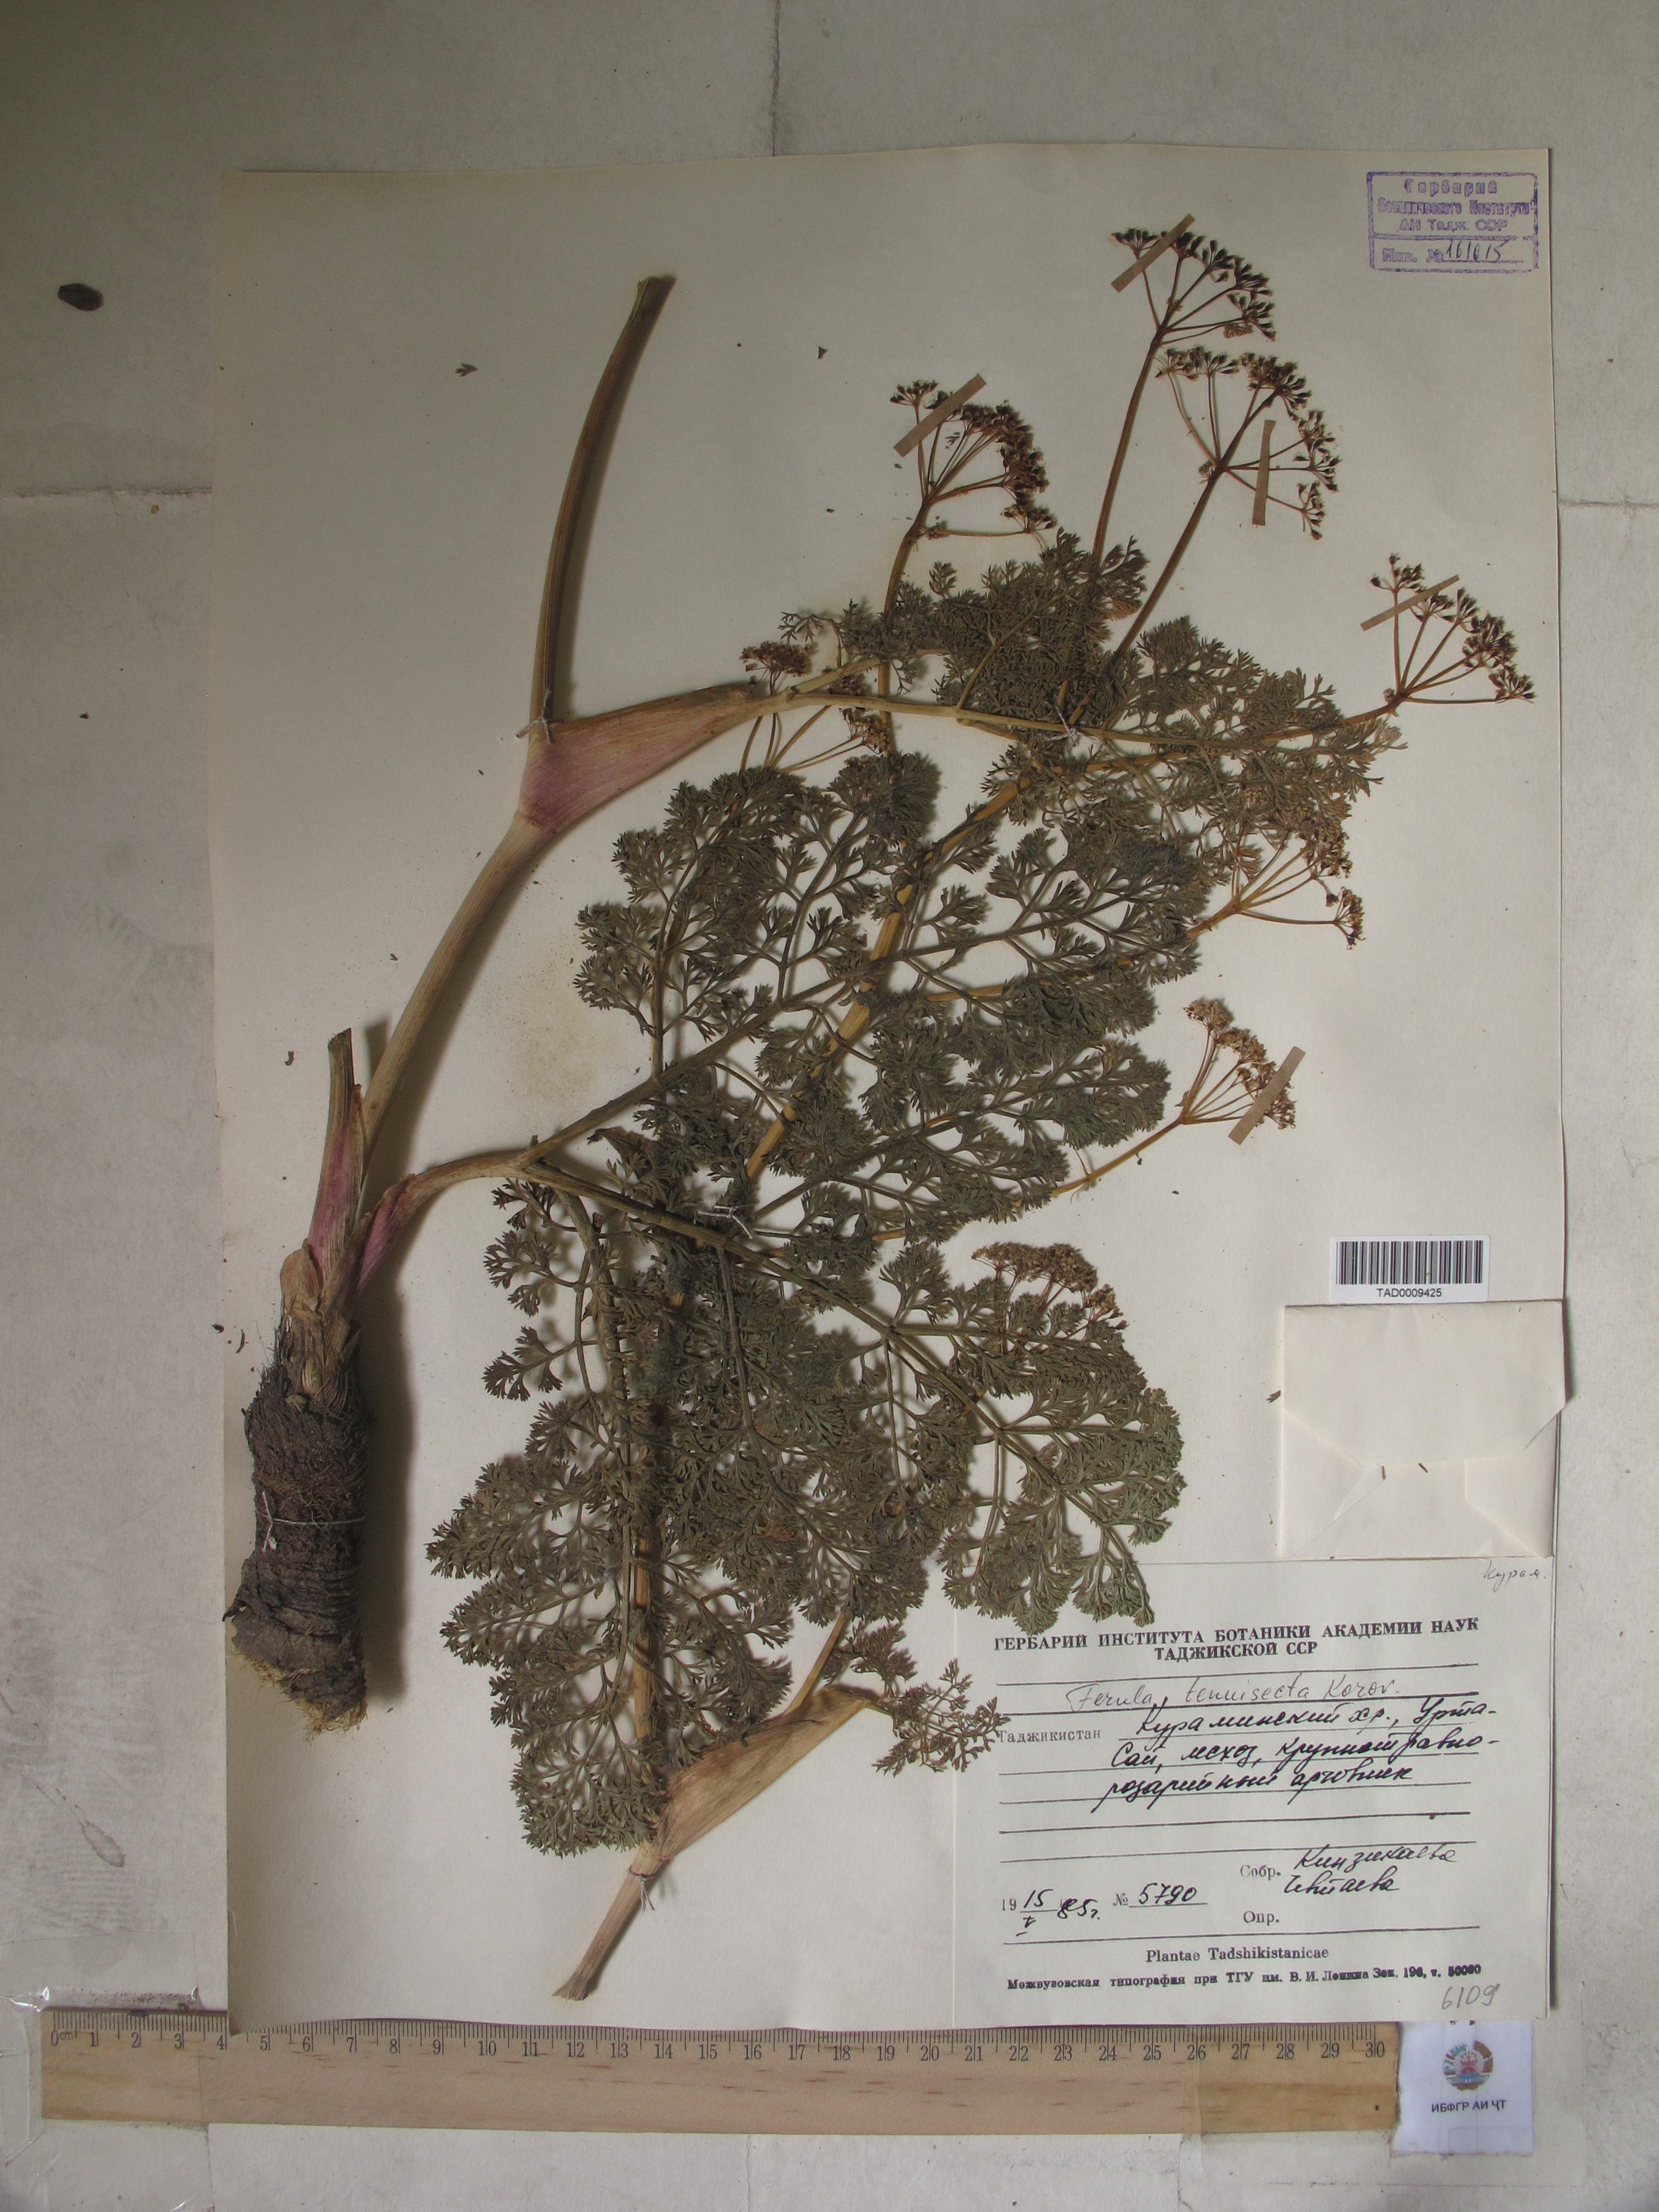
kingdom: Plantae
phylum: Tracheophyta
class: Magnoliopsida
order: Apiales
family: Apiaceae
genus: Ferula
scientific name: Ferula tenuisecta
